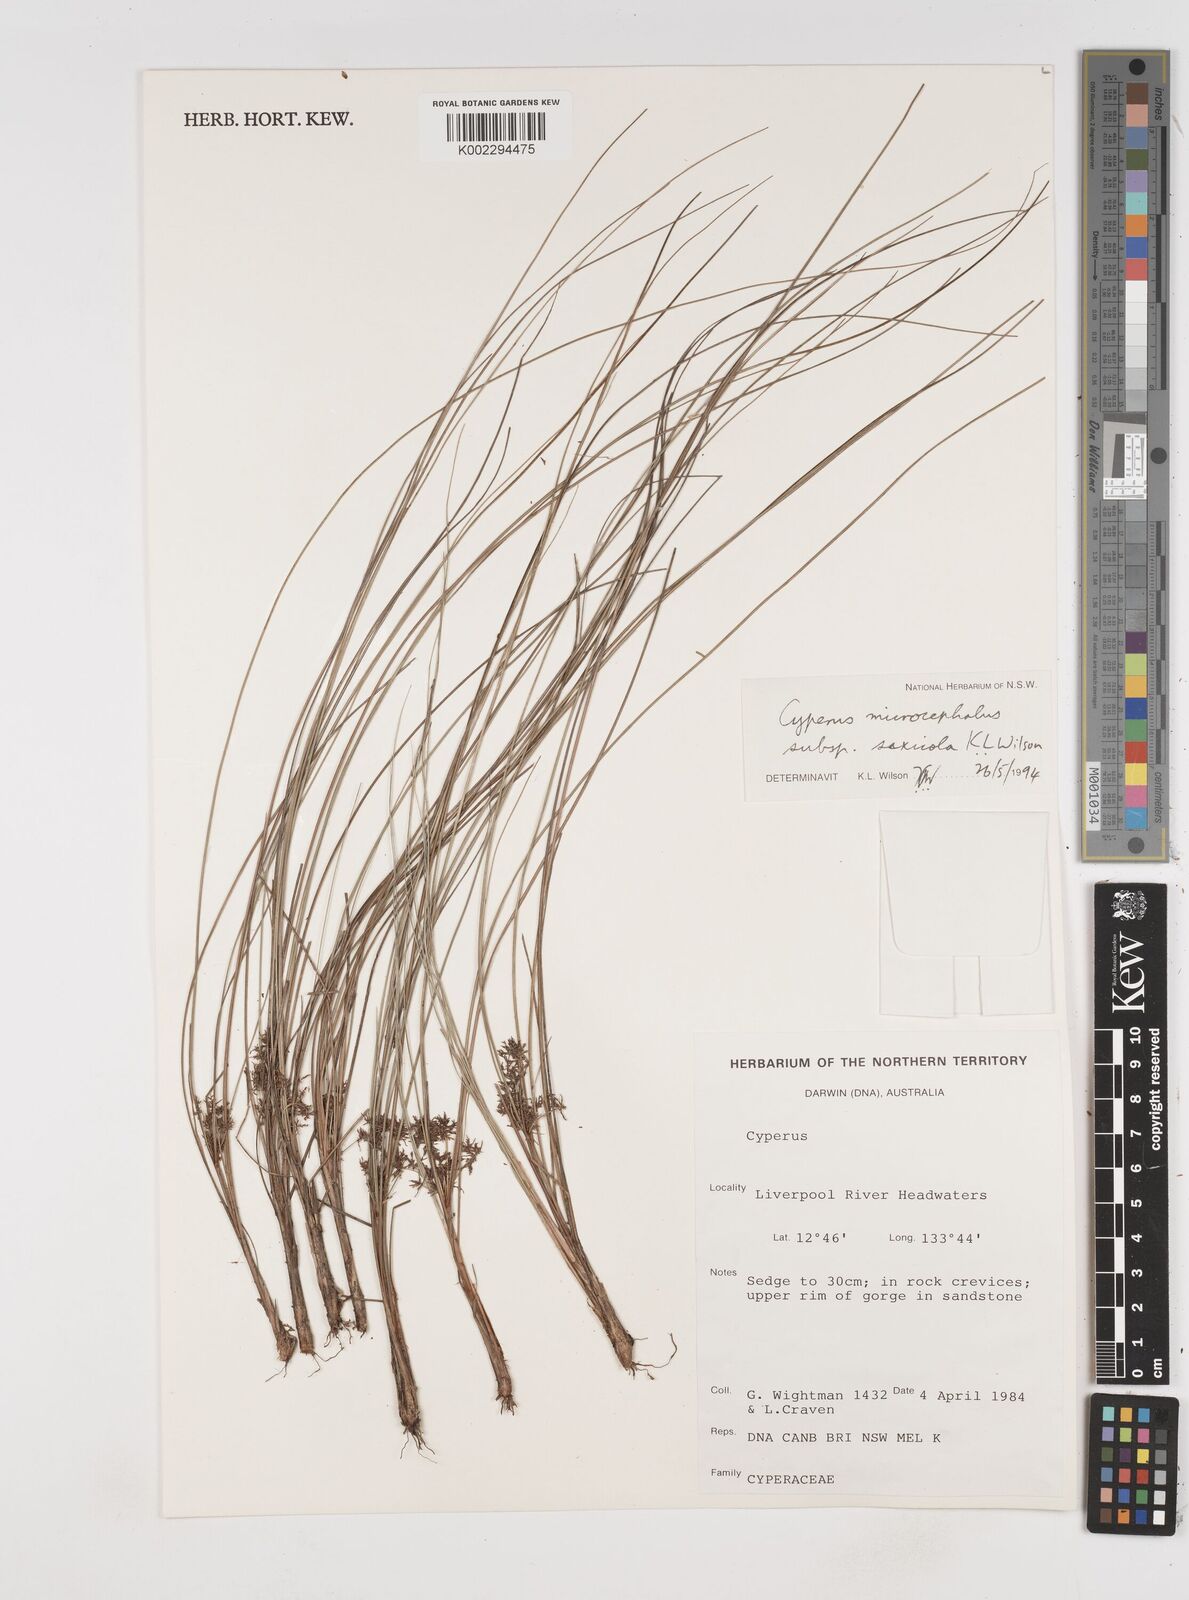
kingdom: Plantae
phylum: Tracheophyta
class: Liliopsida
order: Poales
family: Cyperaceae
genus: Cyperus
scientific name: Cyperus microcephalus
